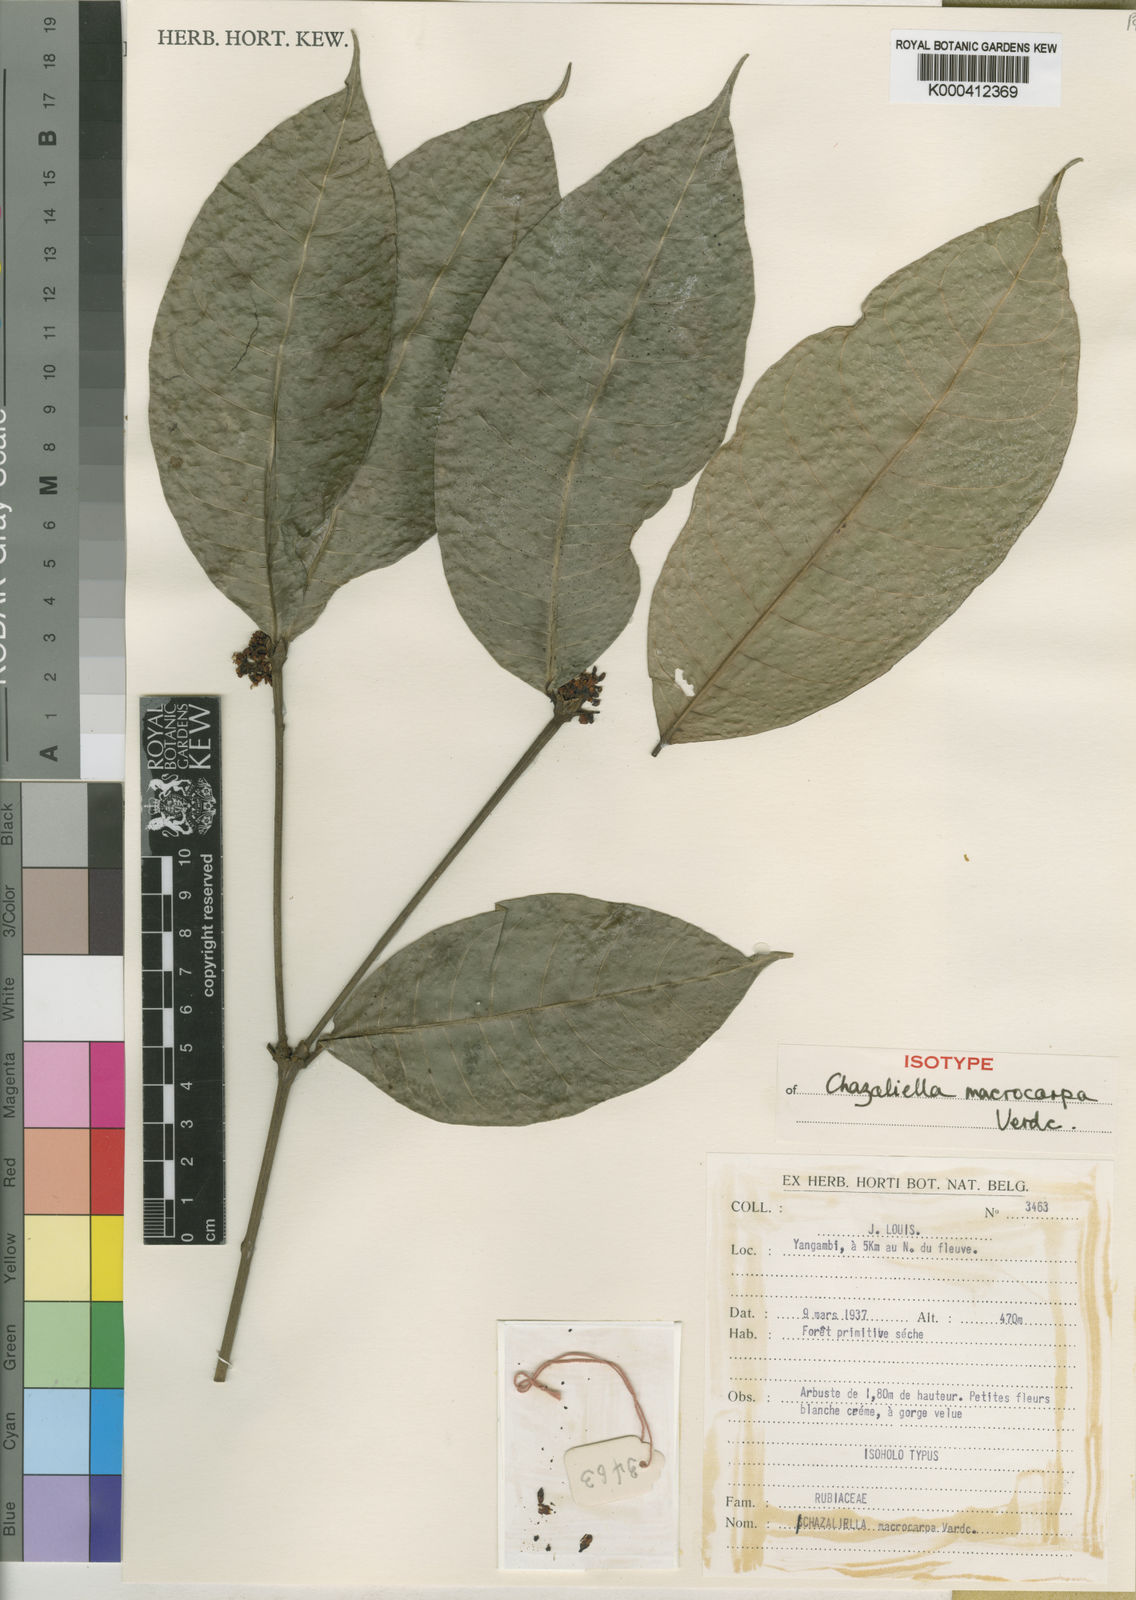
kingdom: Plantae
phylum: Tracheophyta
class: Magnoliopsida
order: Gentianales
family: Rubiaceae
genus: Eumachia
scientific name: Eumachia macrocarpa
